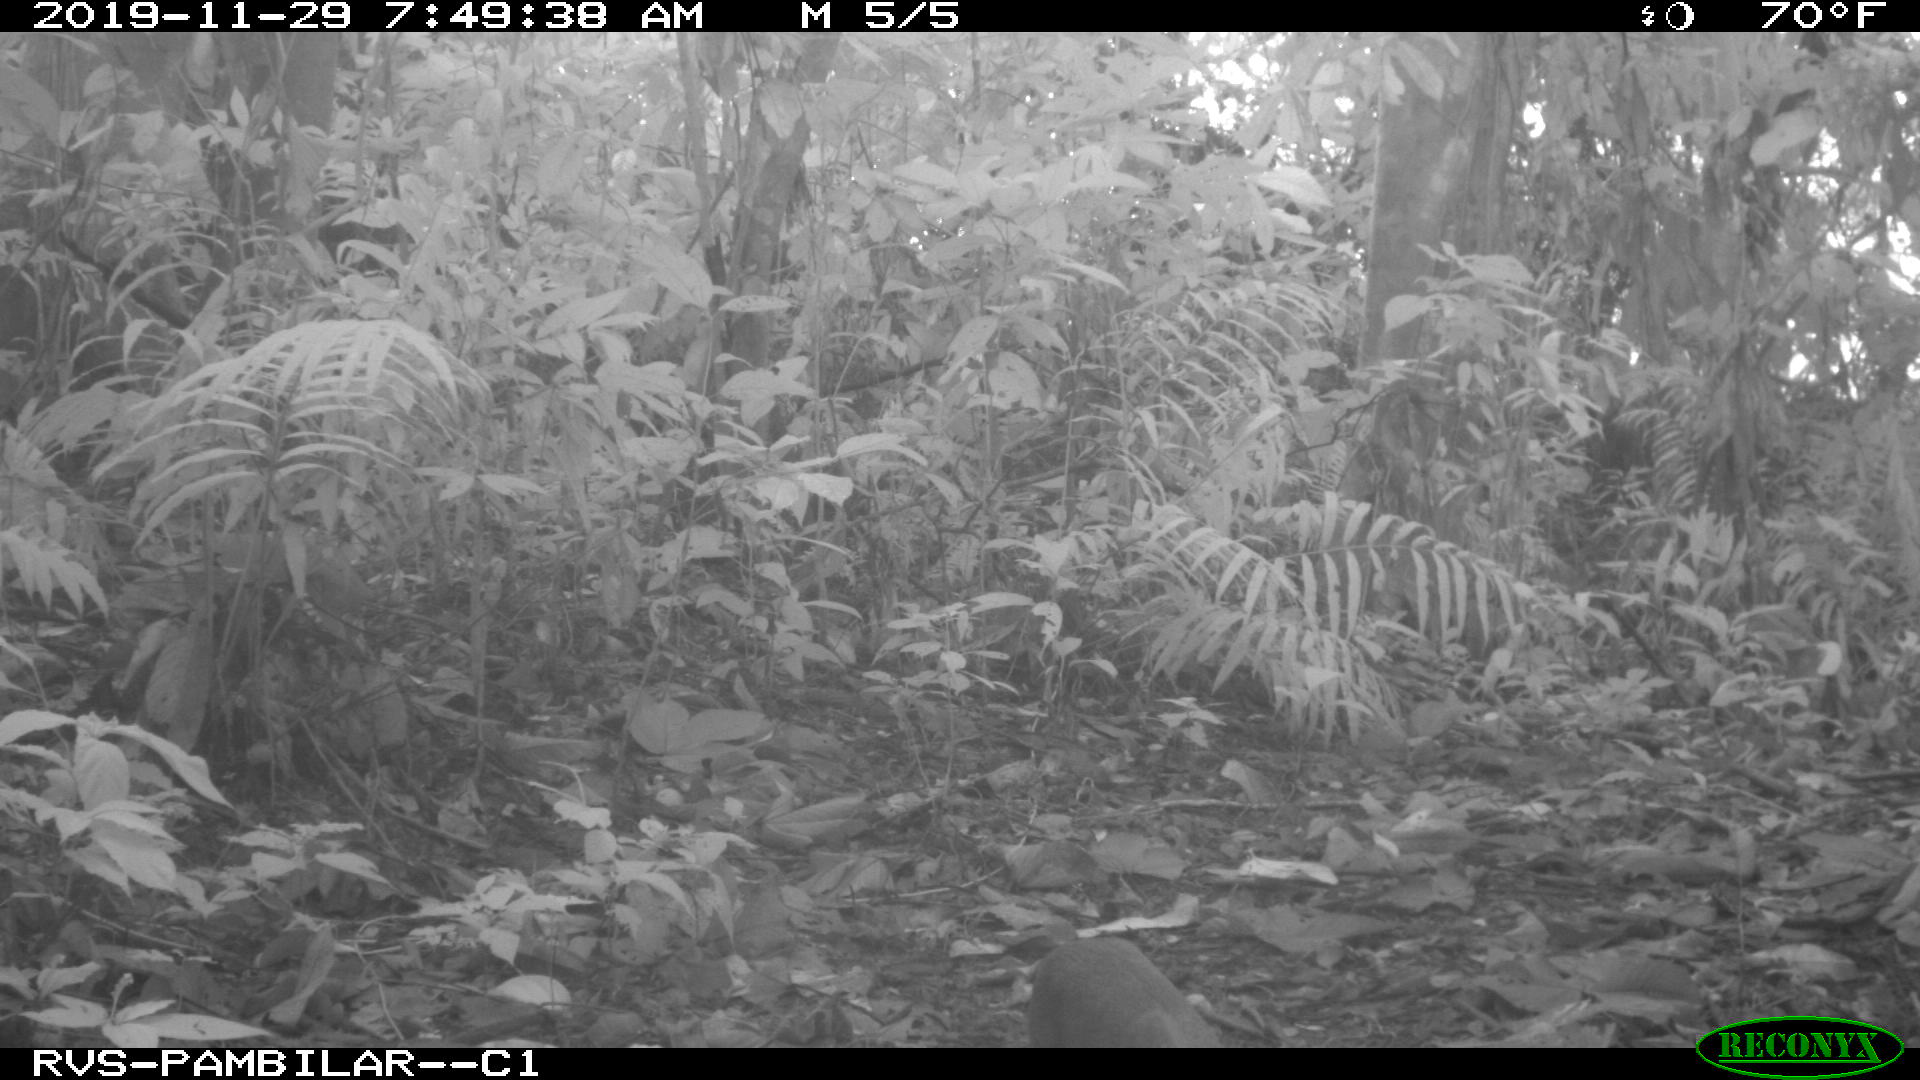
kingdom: Animalia
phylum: Chordata
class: Mammalia
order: Rodentia
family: Dasyproctidae
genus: Dasyprocta
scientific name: Dasyprocta punctata
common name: Central american agouti
